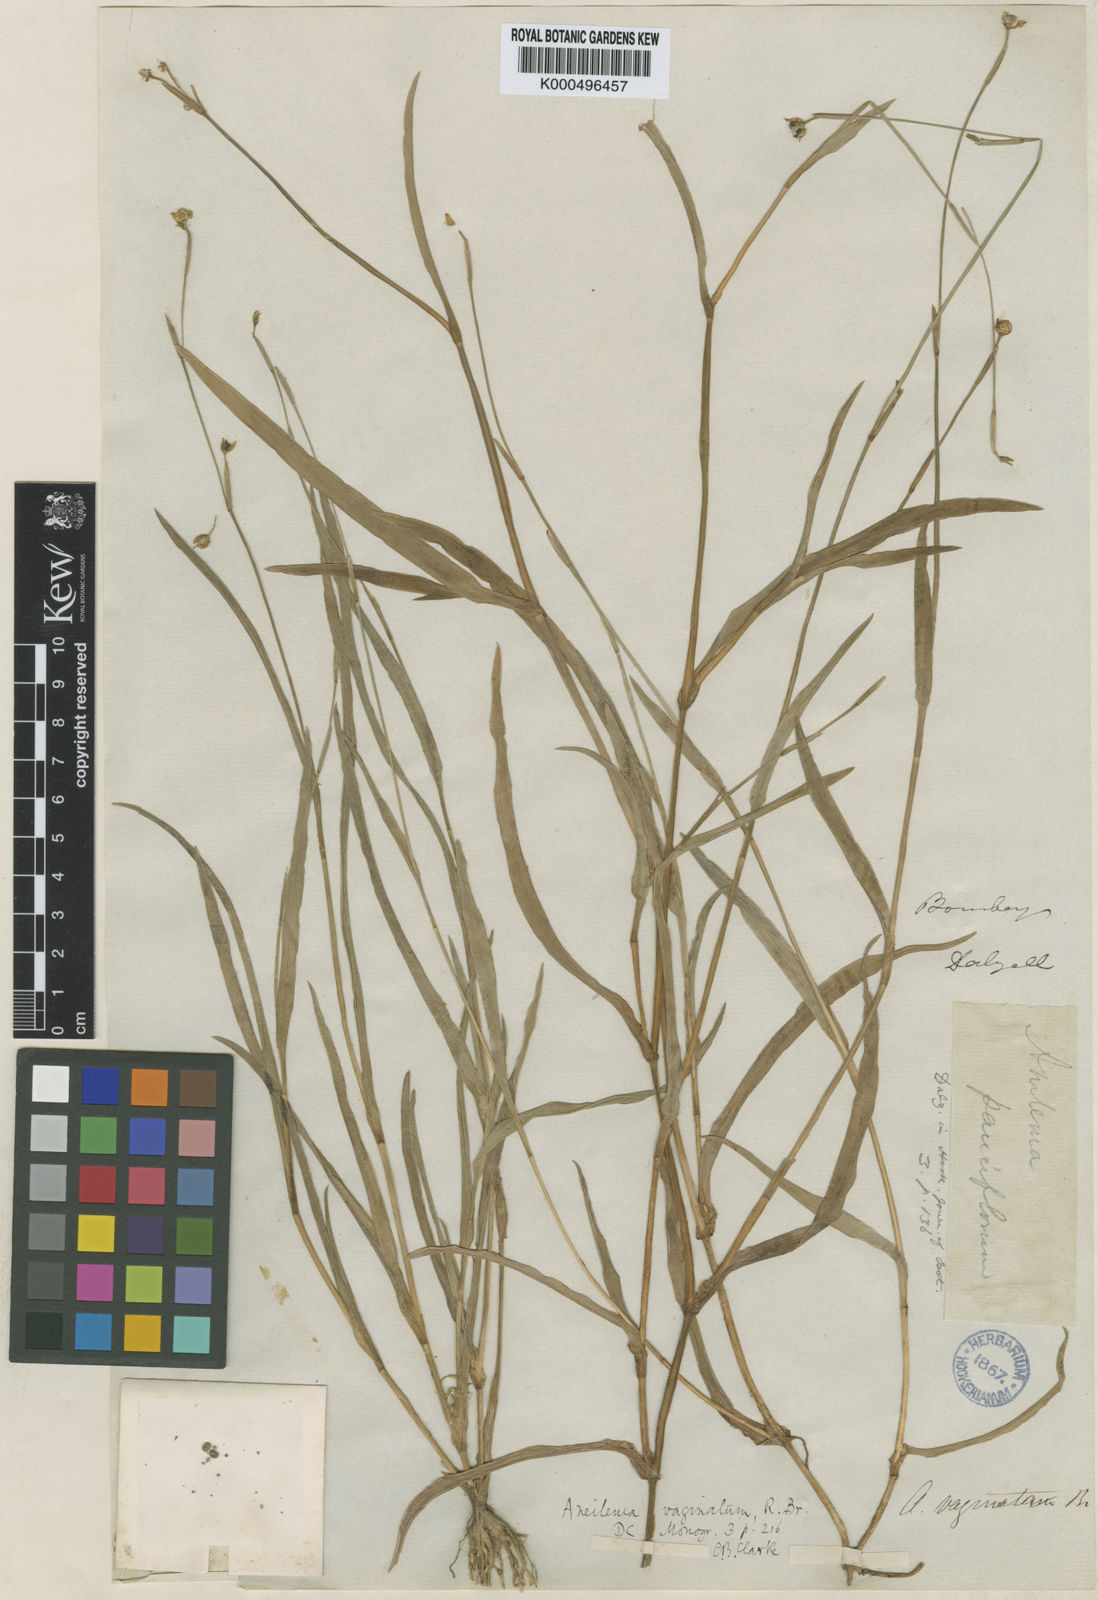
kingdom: Plantae
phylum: Tracheophyta
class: Liliopsida
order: Commelinales
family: Commelinaceae
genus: Murdannia
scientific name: Murdannia vaginata
